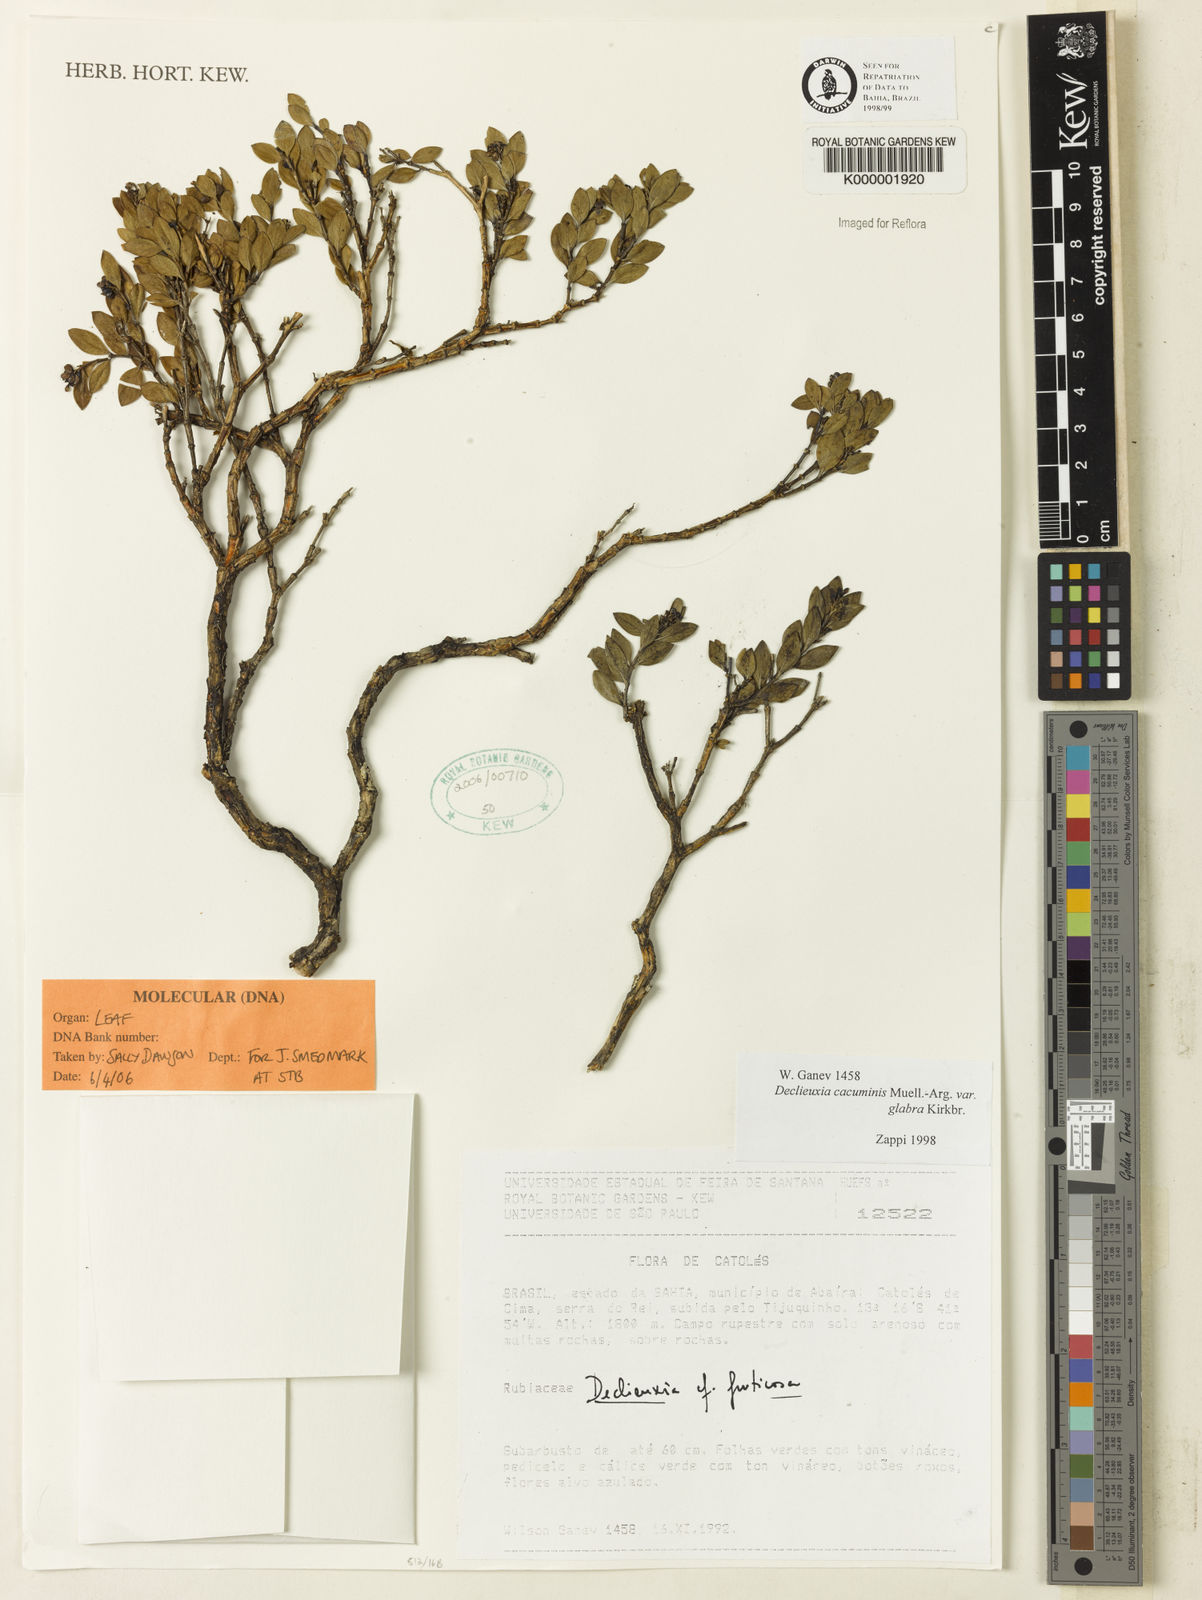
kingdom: Plantae
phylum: Tracheophyta
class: Magnoliopsida
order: Gentianales
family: Rubiaceae
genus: Declieuxia
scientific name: Declieuxia cacuminis
